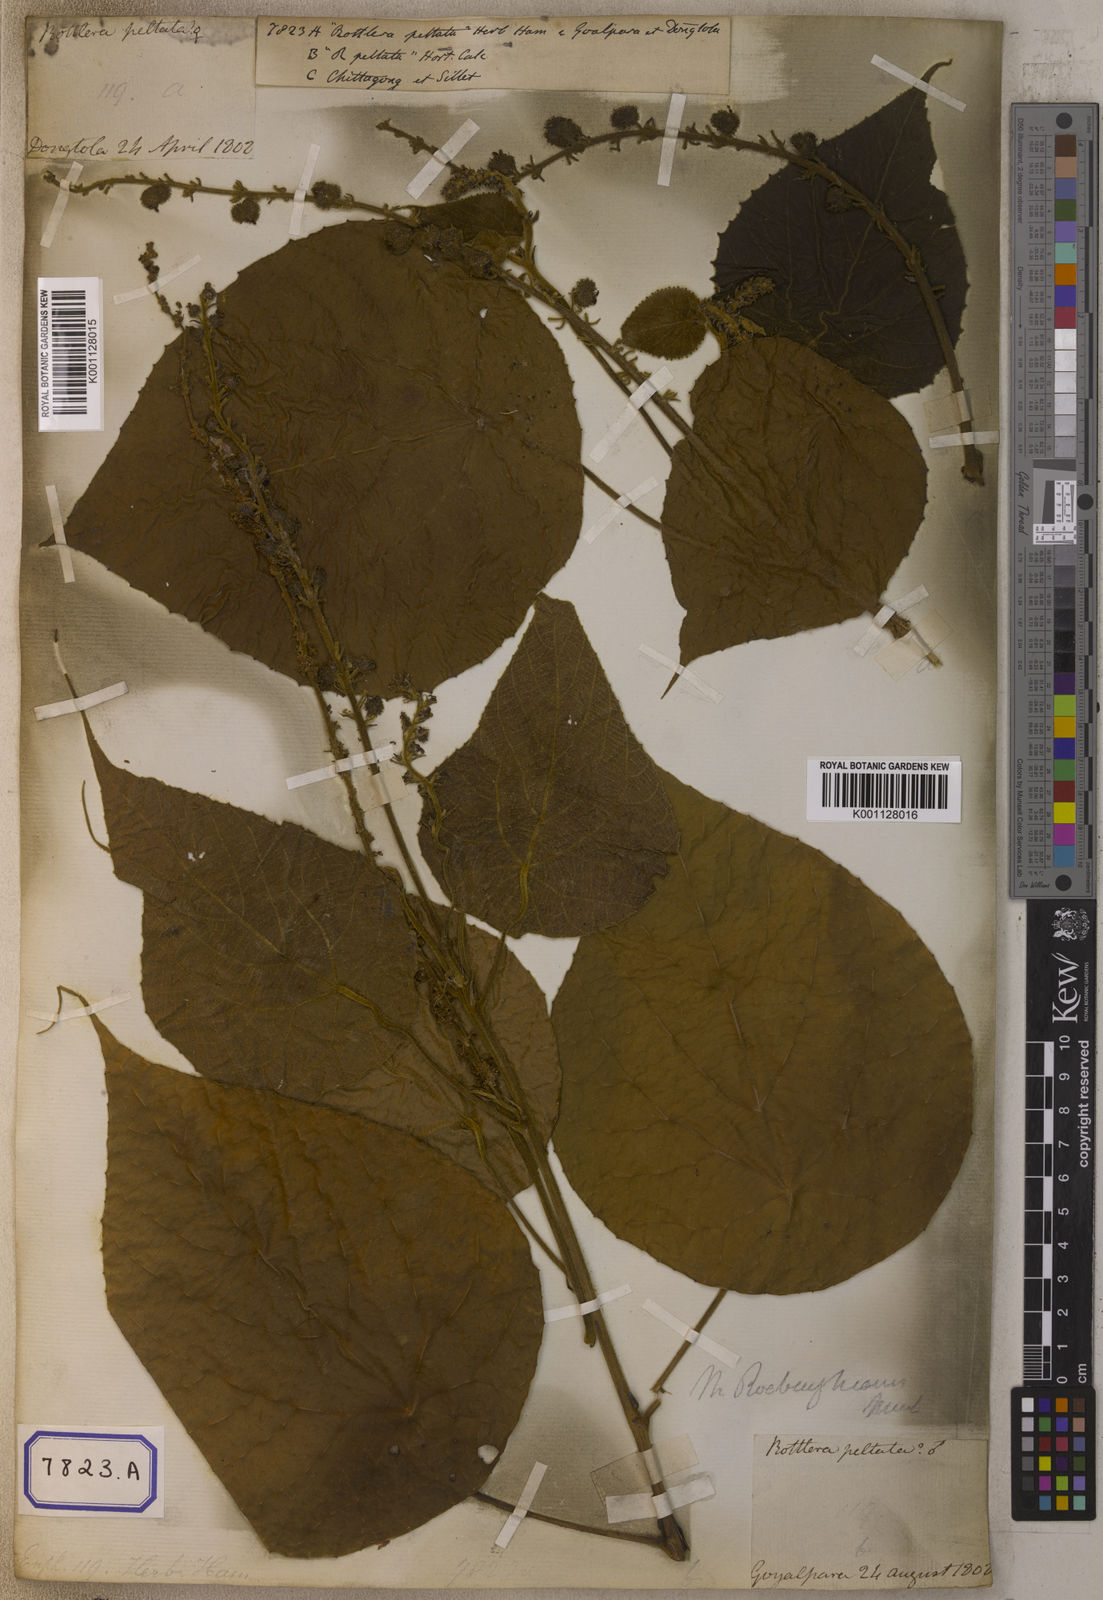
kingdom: Plantae
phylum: Tracheophyta
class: Magnoliopsida
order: Malpighiales
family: Euphorbiaceae
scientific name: Euphorbiaceae
